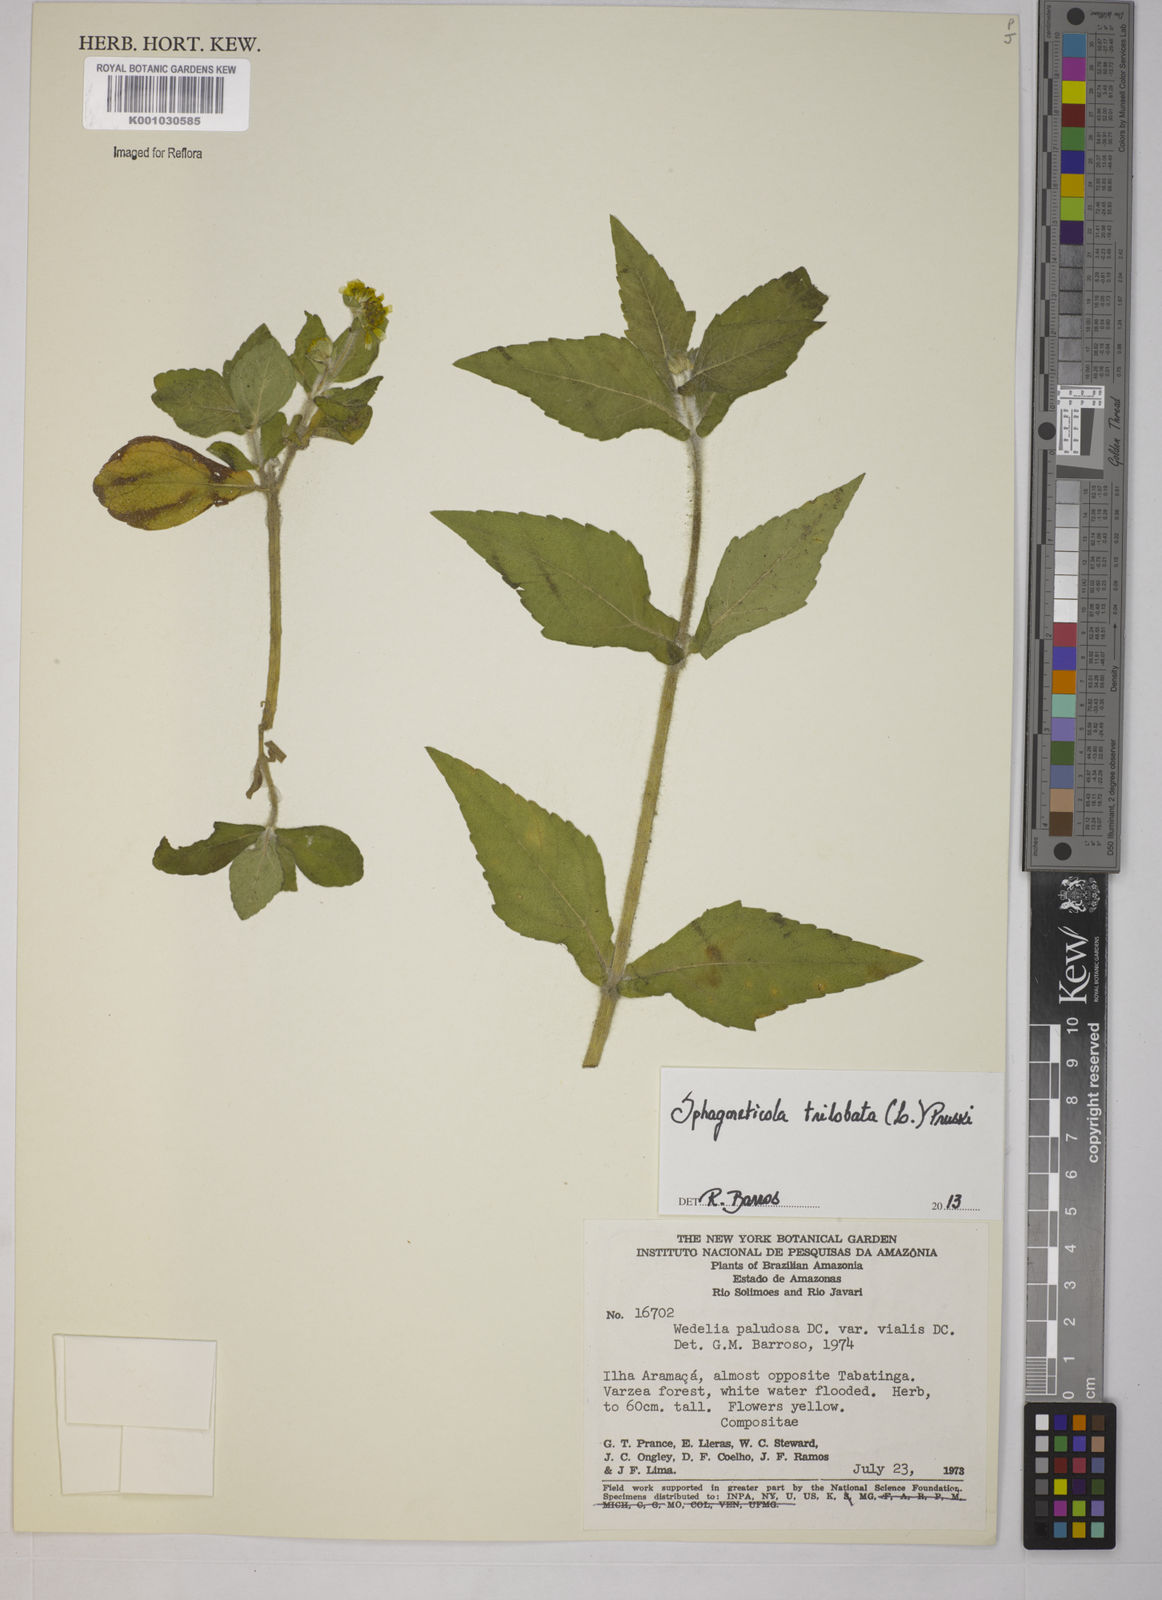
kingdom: Plantae
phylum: Tracheophyta
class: Magnoliopsida
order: Asterales
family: Asteraceae
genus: Sphagneticola
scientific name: Sphagneticola trilobata
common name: Bay biscayne creeping-oxeye
